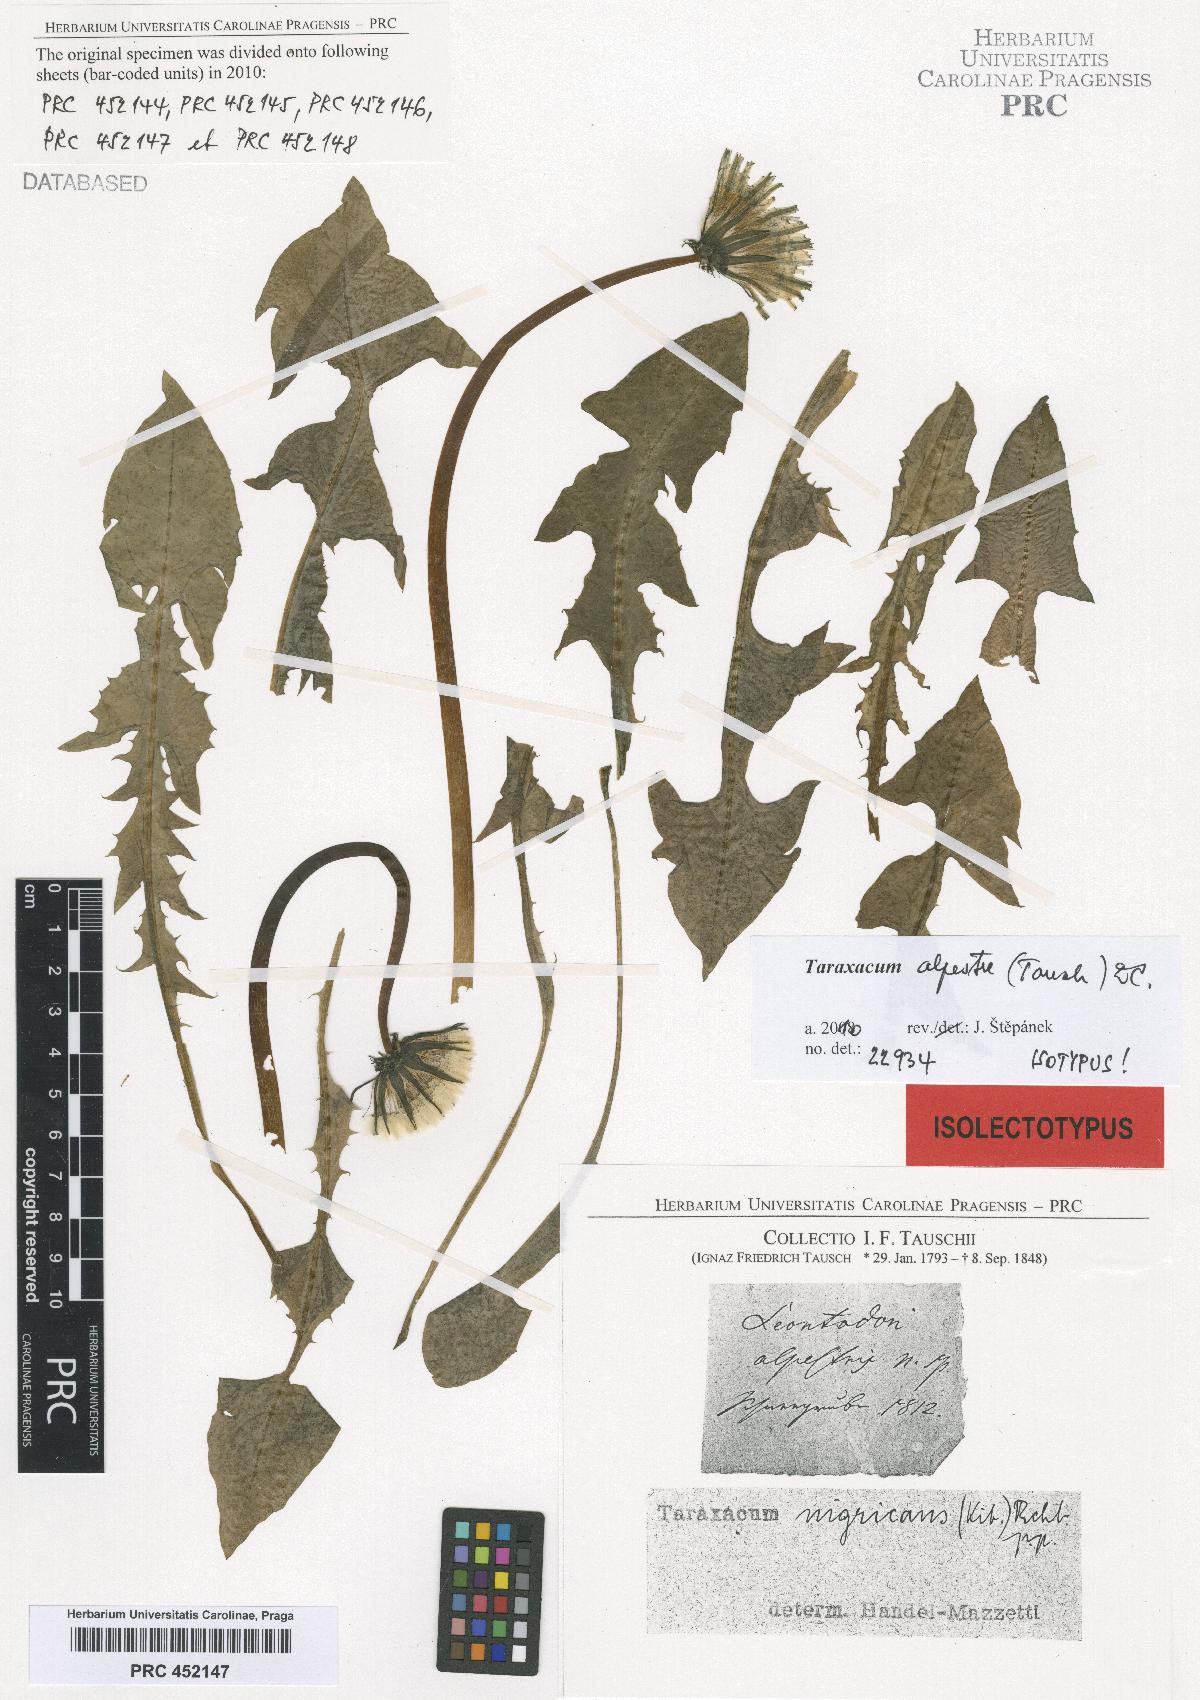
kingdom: Plantae
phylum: Tracheophyta
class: Magnoliopsida
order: Asterales
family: Asteraceae
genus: Taraxacum
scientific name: Taraxacum alpestre
